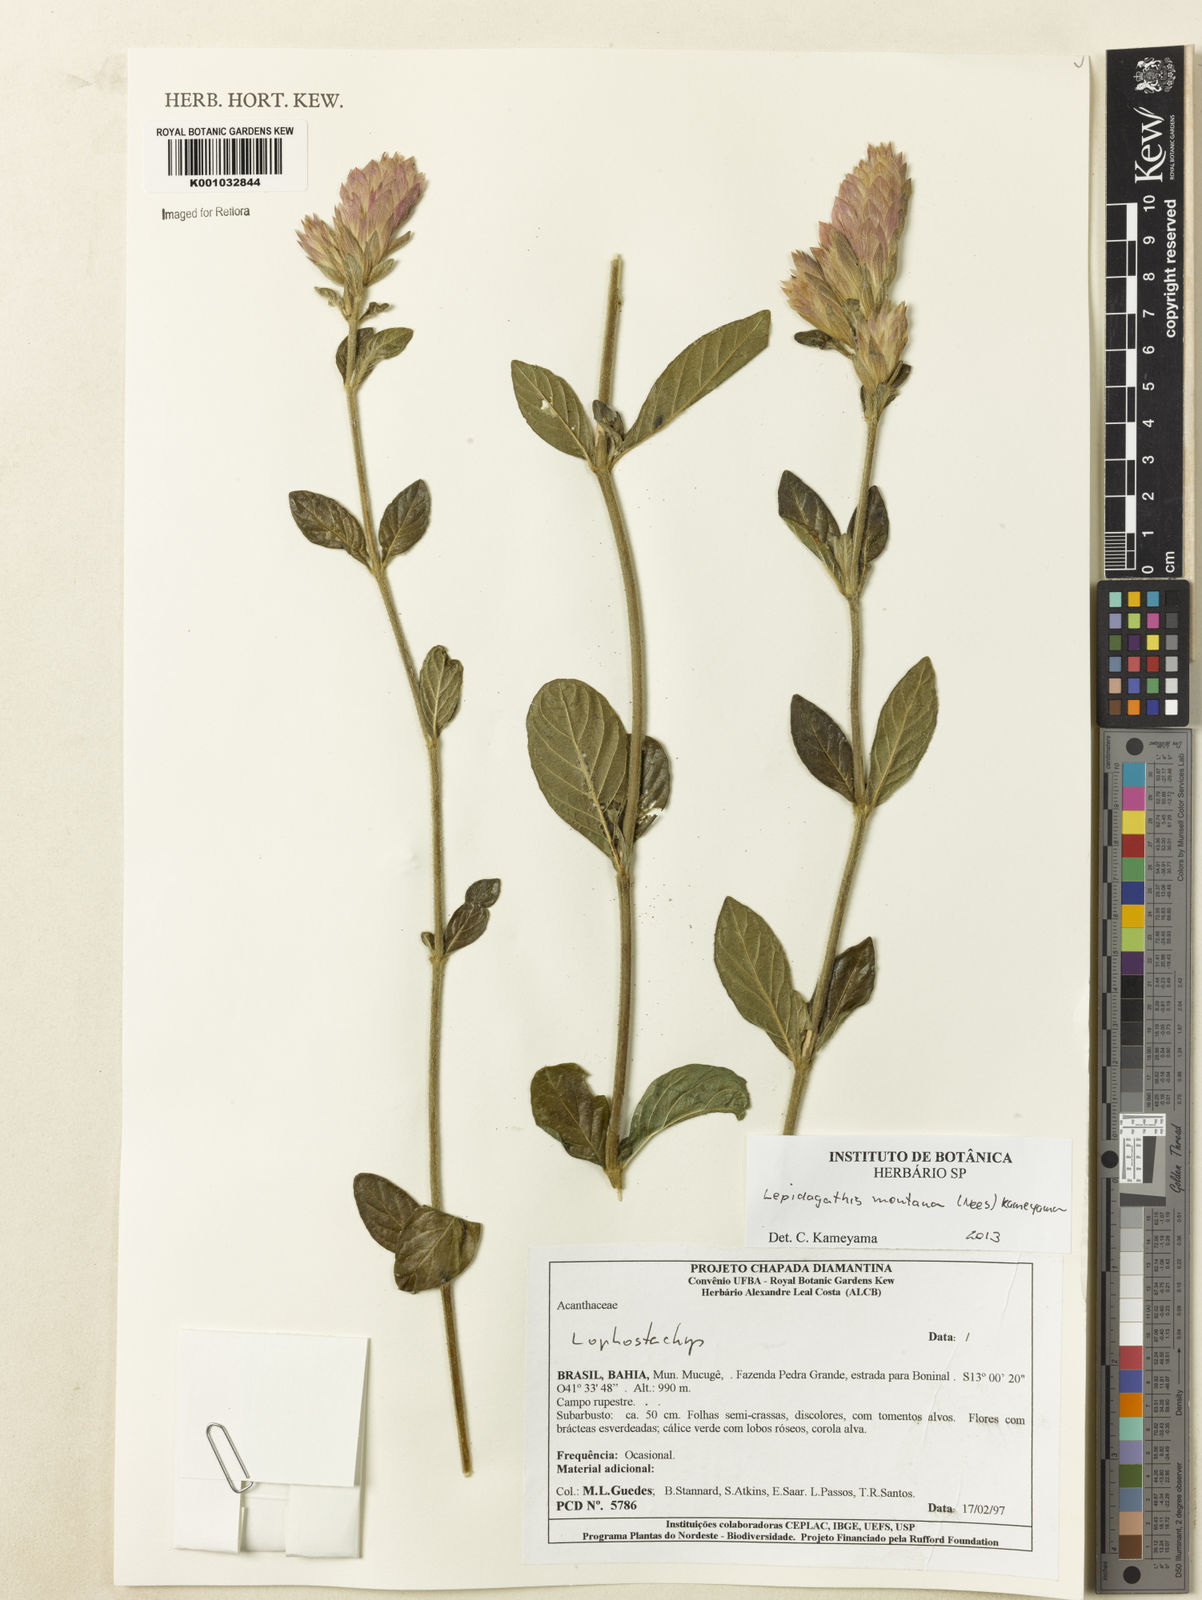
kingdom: Plantae
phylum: Tracheophyta
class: Magnoliopsida
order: Lamiales
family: Acanthaceae
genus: Lepidagathis
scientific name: Lepidagathis montana
